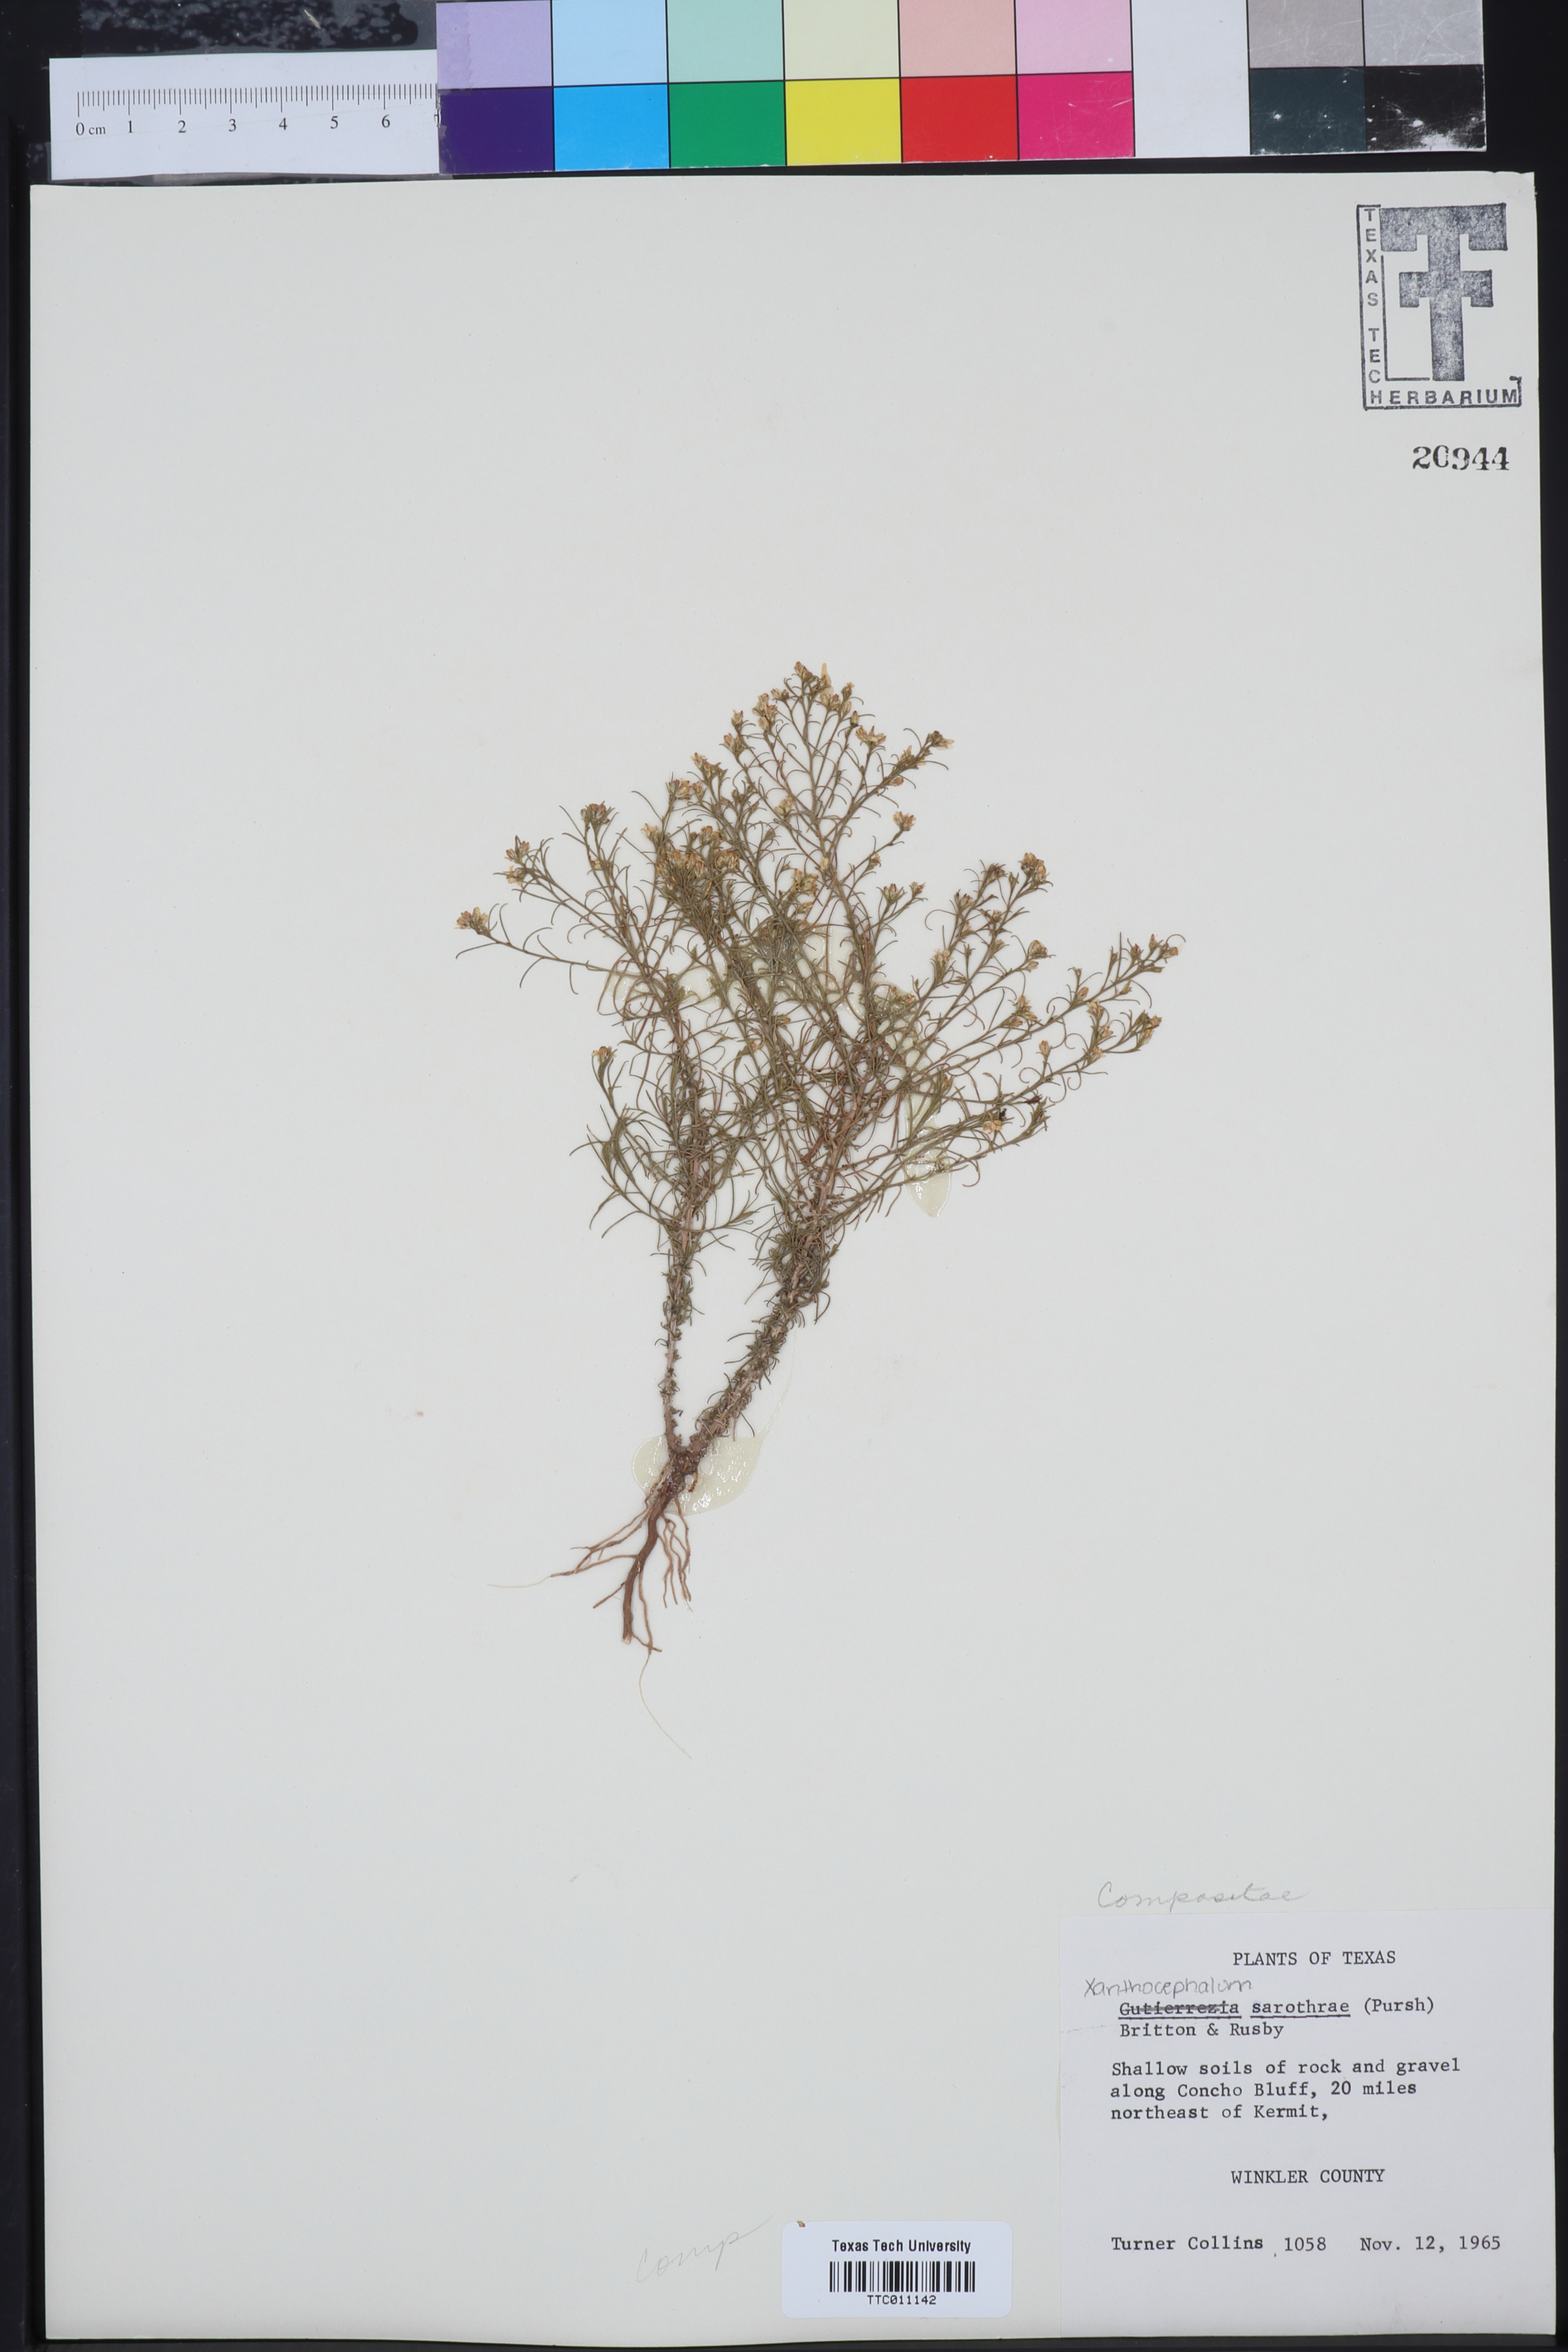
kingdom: Plantae
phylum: Tracheophyta
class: Magnoliopsida
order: Asterales
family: Asteraceae
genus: Gutierrezia
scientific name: Gutierrezia sarothrae
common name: Broom snakeweed
